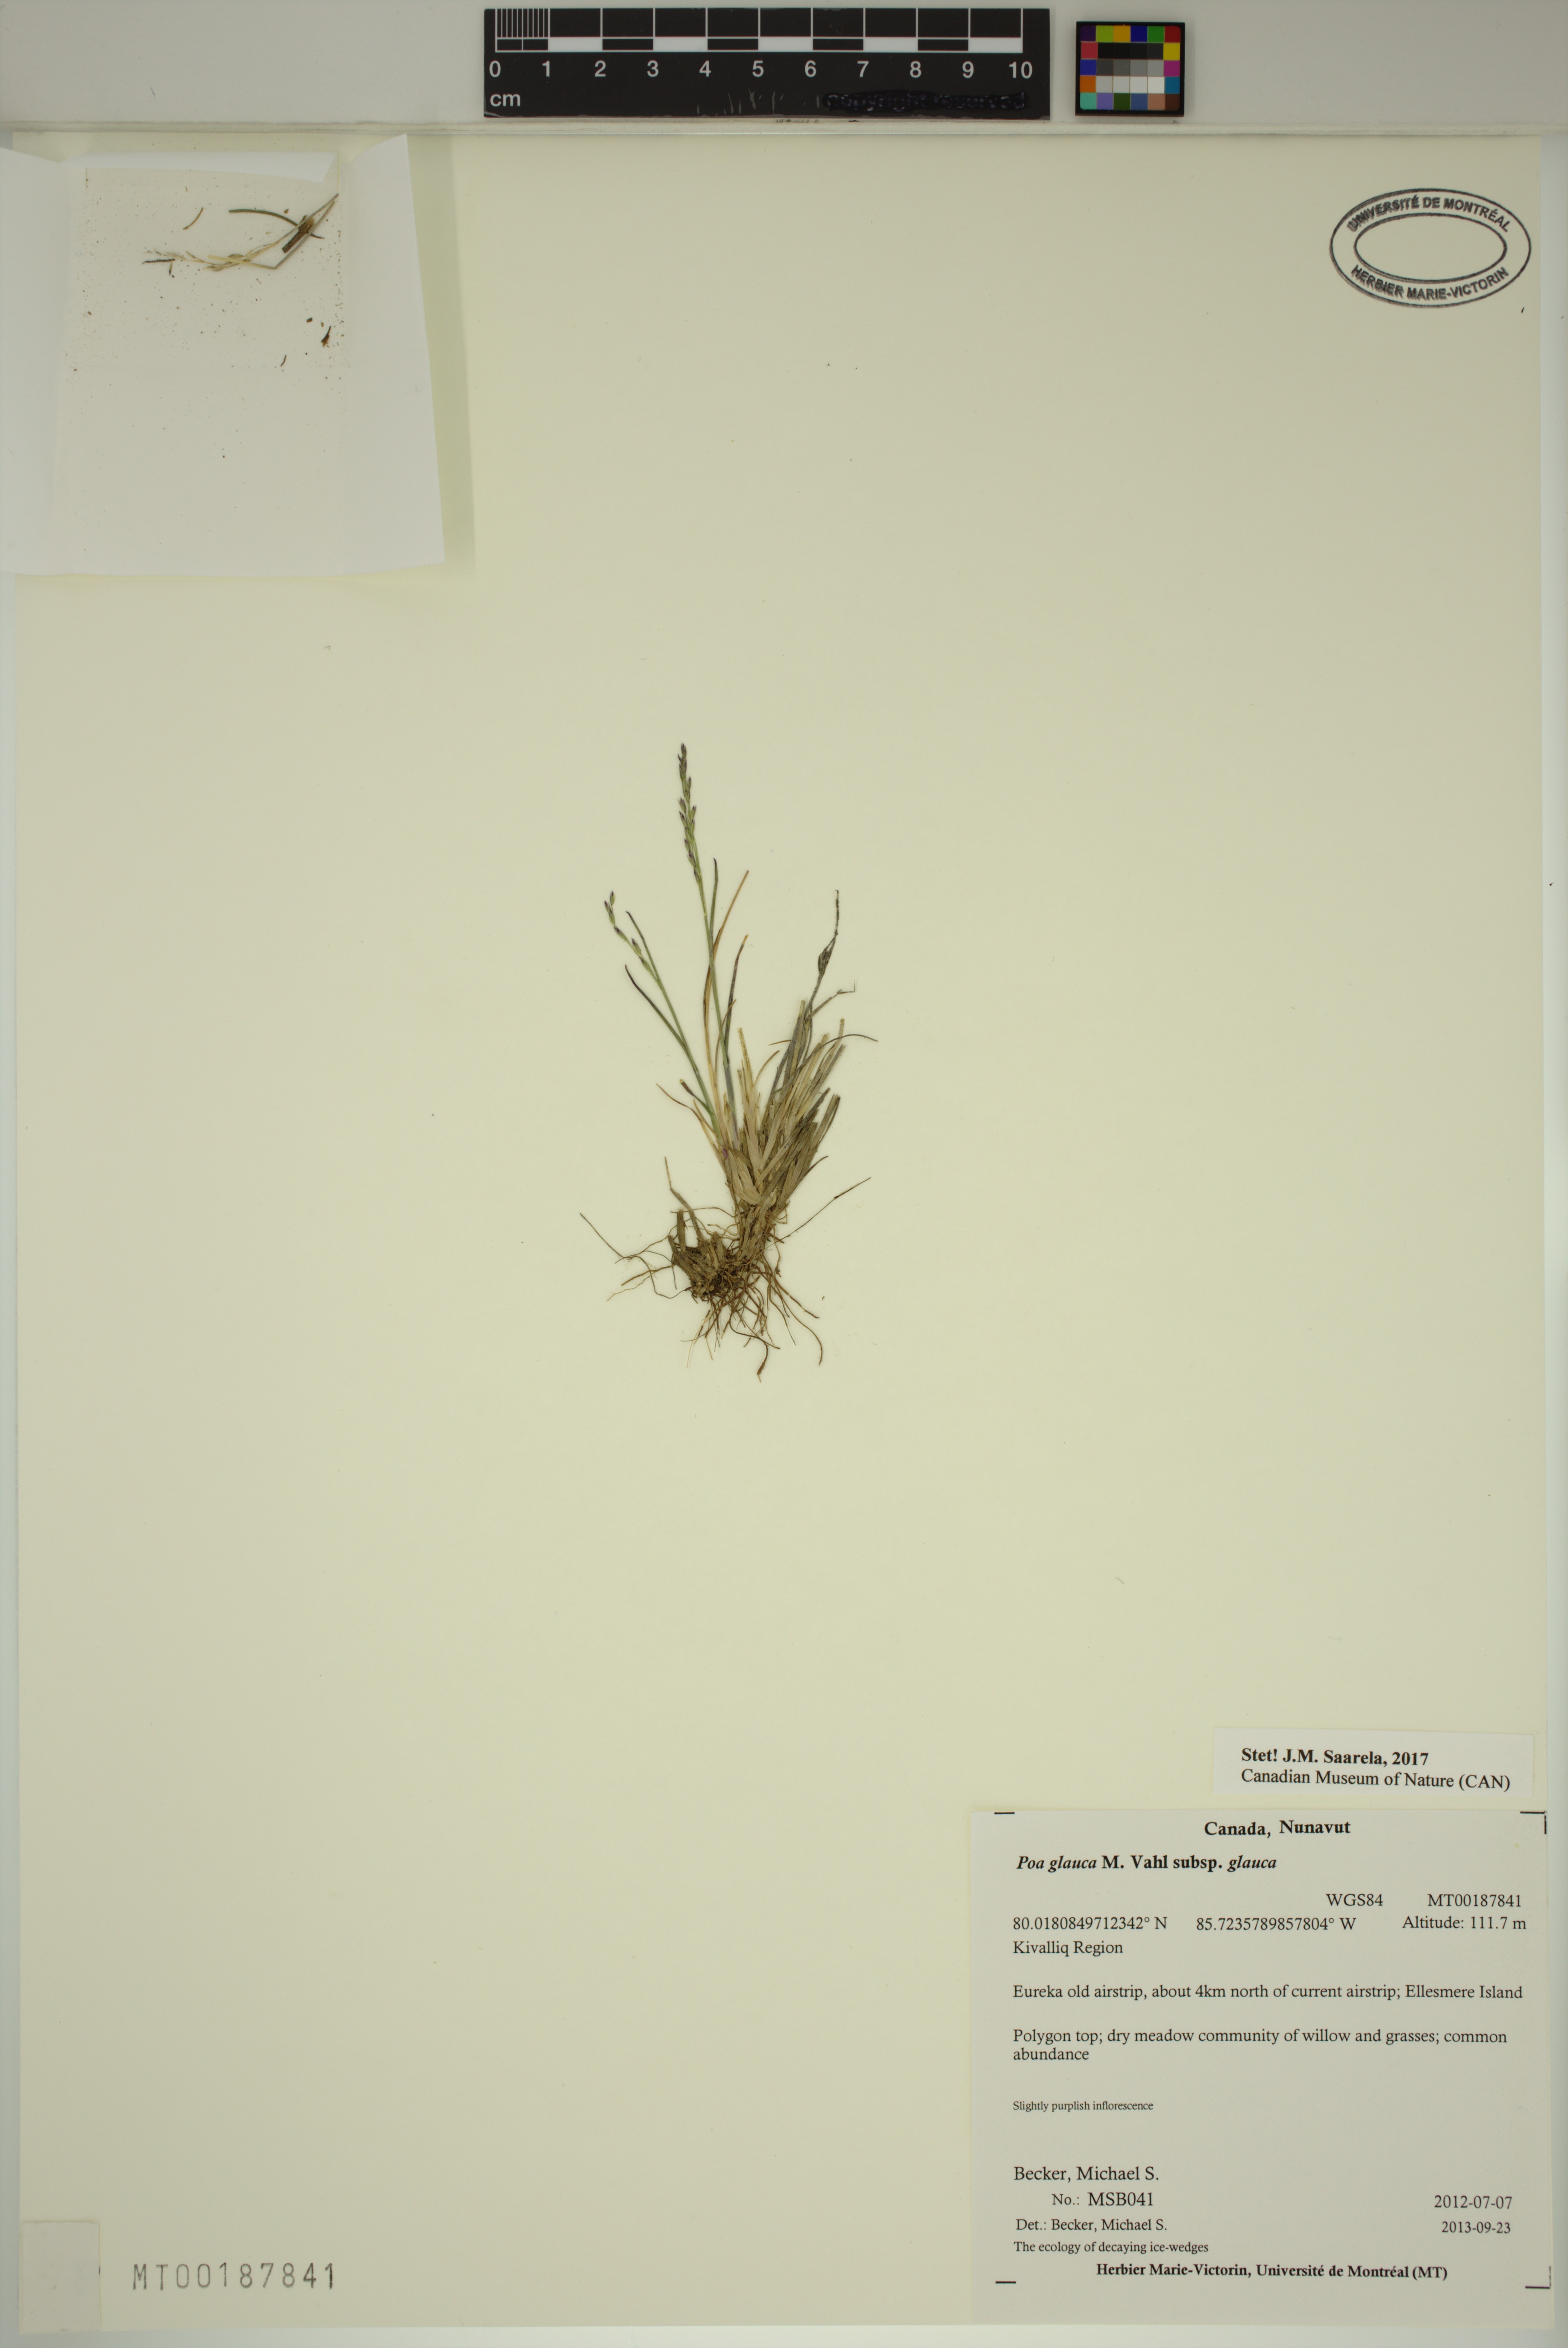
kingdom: Plantae
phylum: Tracheophyta
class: Liliopsida
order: Poales
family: Poaceae
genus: Poa
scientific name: Poa glauca
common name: Glaucous bluegrass
